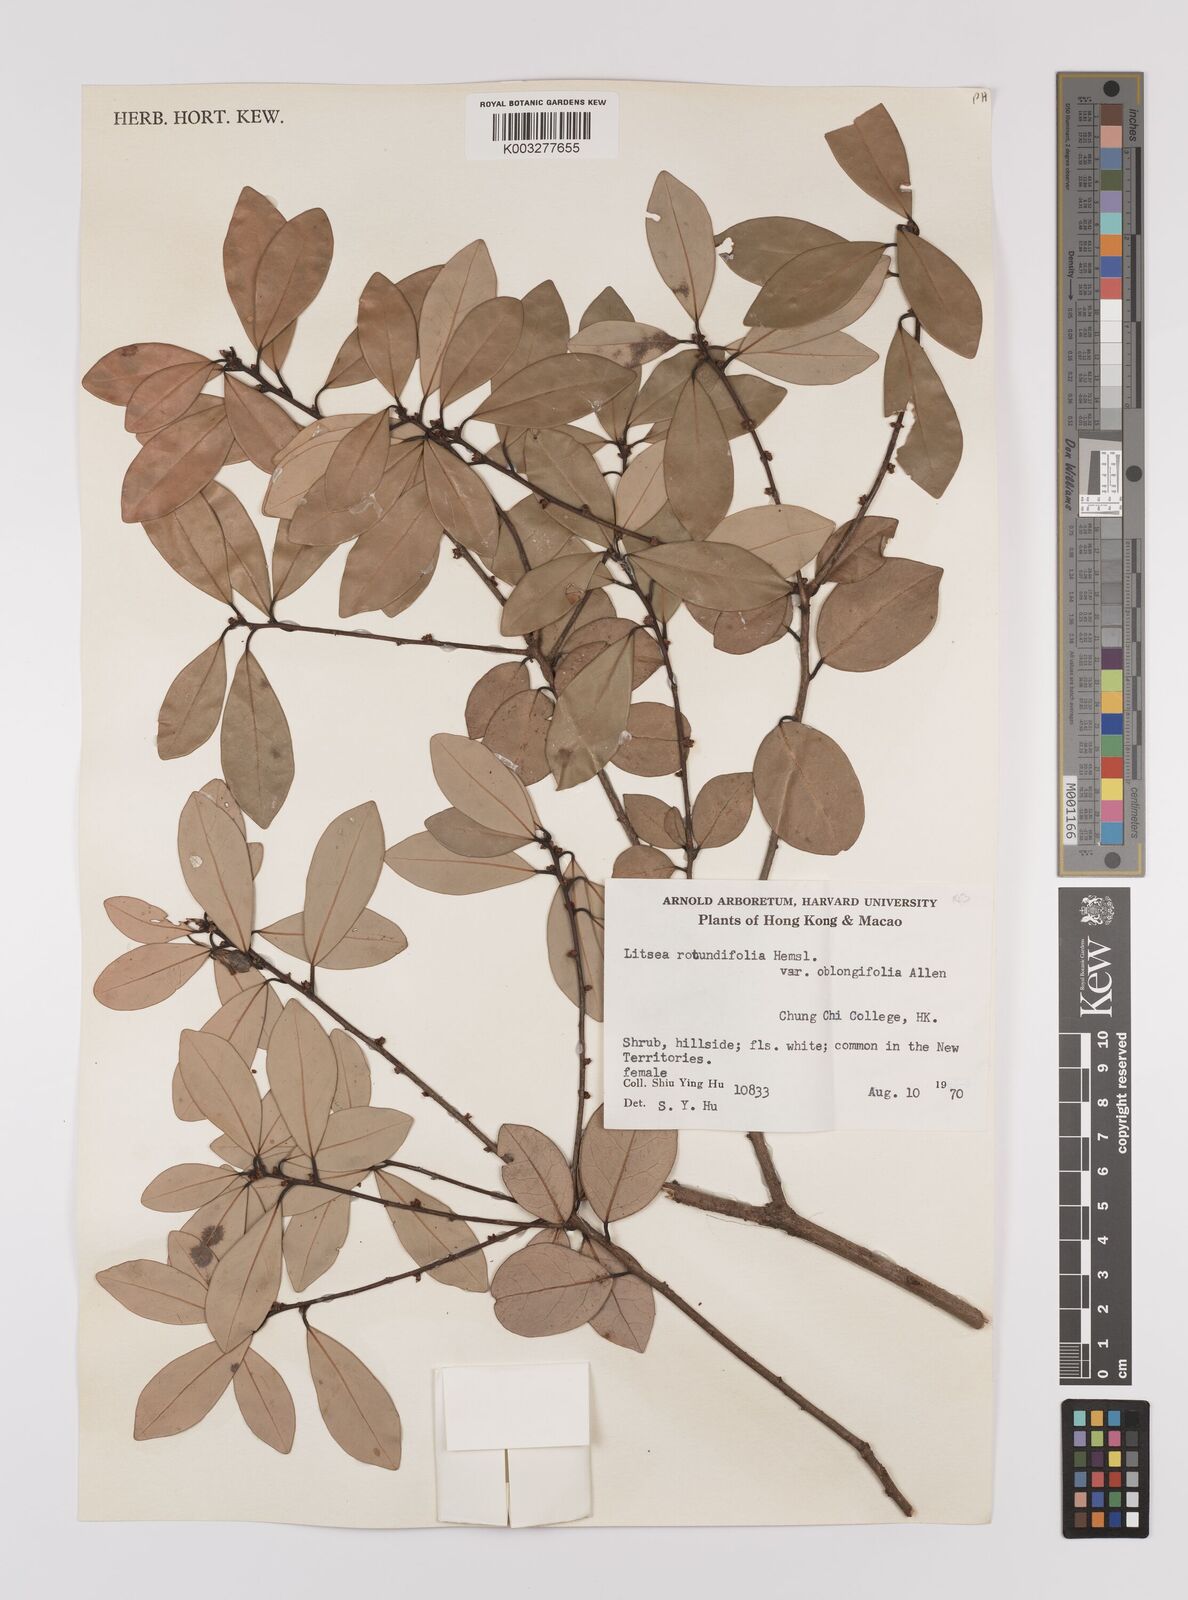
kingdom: Plantae
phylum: Tracheophyta
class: Magnoliopsida
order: Laurales
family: Lauraceae
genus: Litsea
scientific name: Litsea rotundifolia
